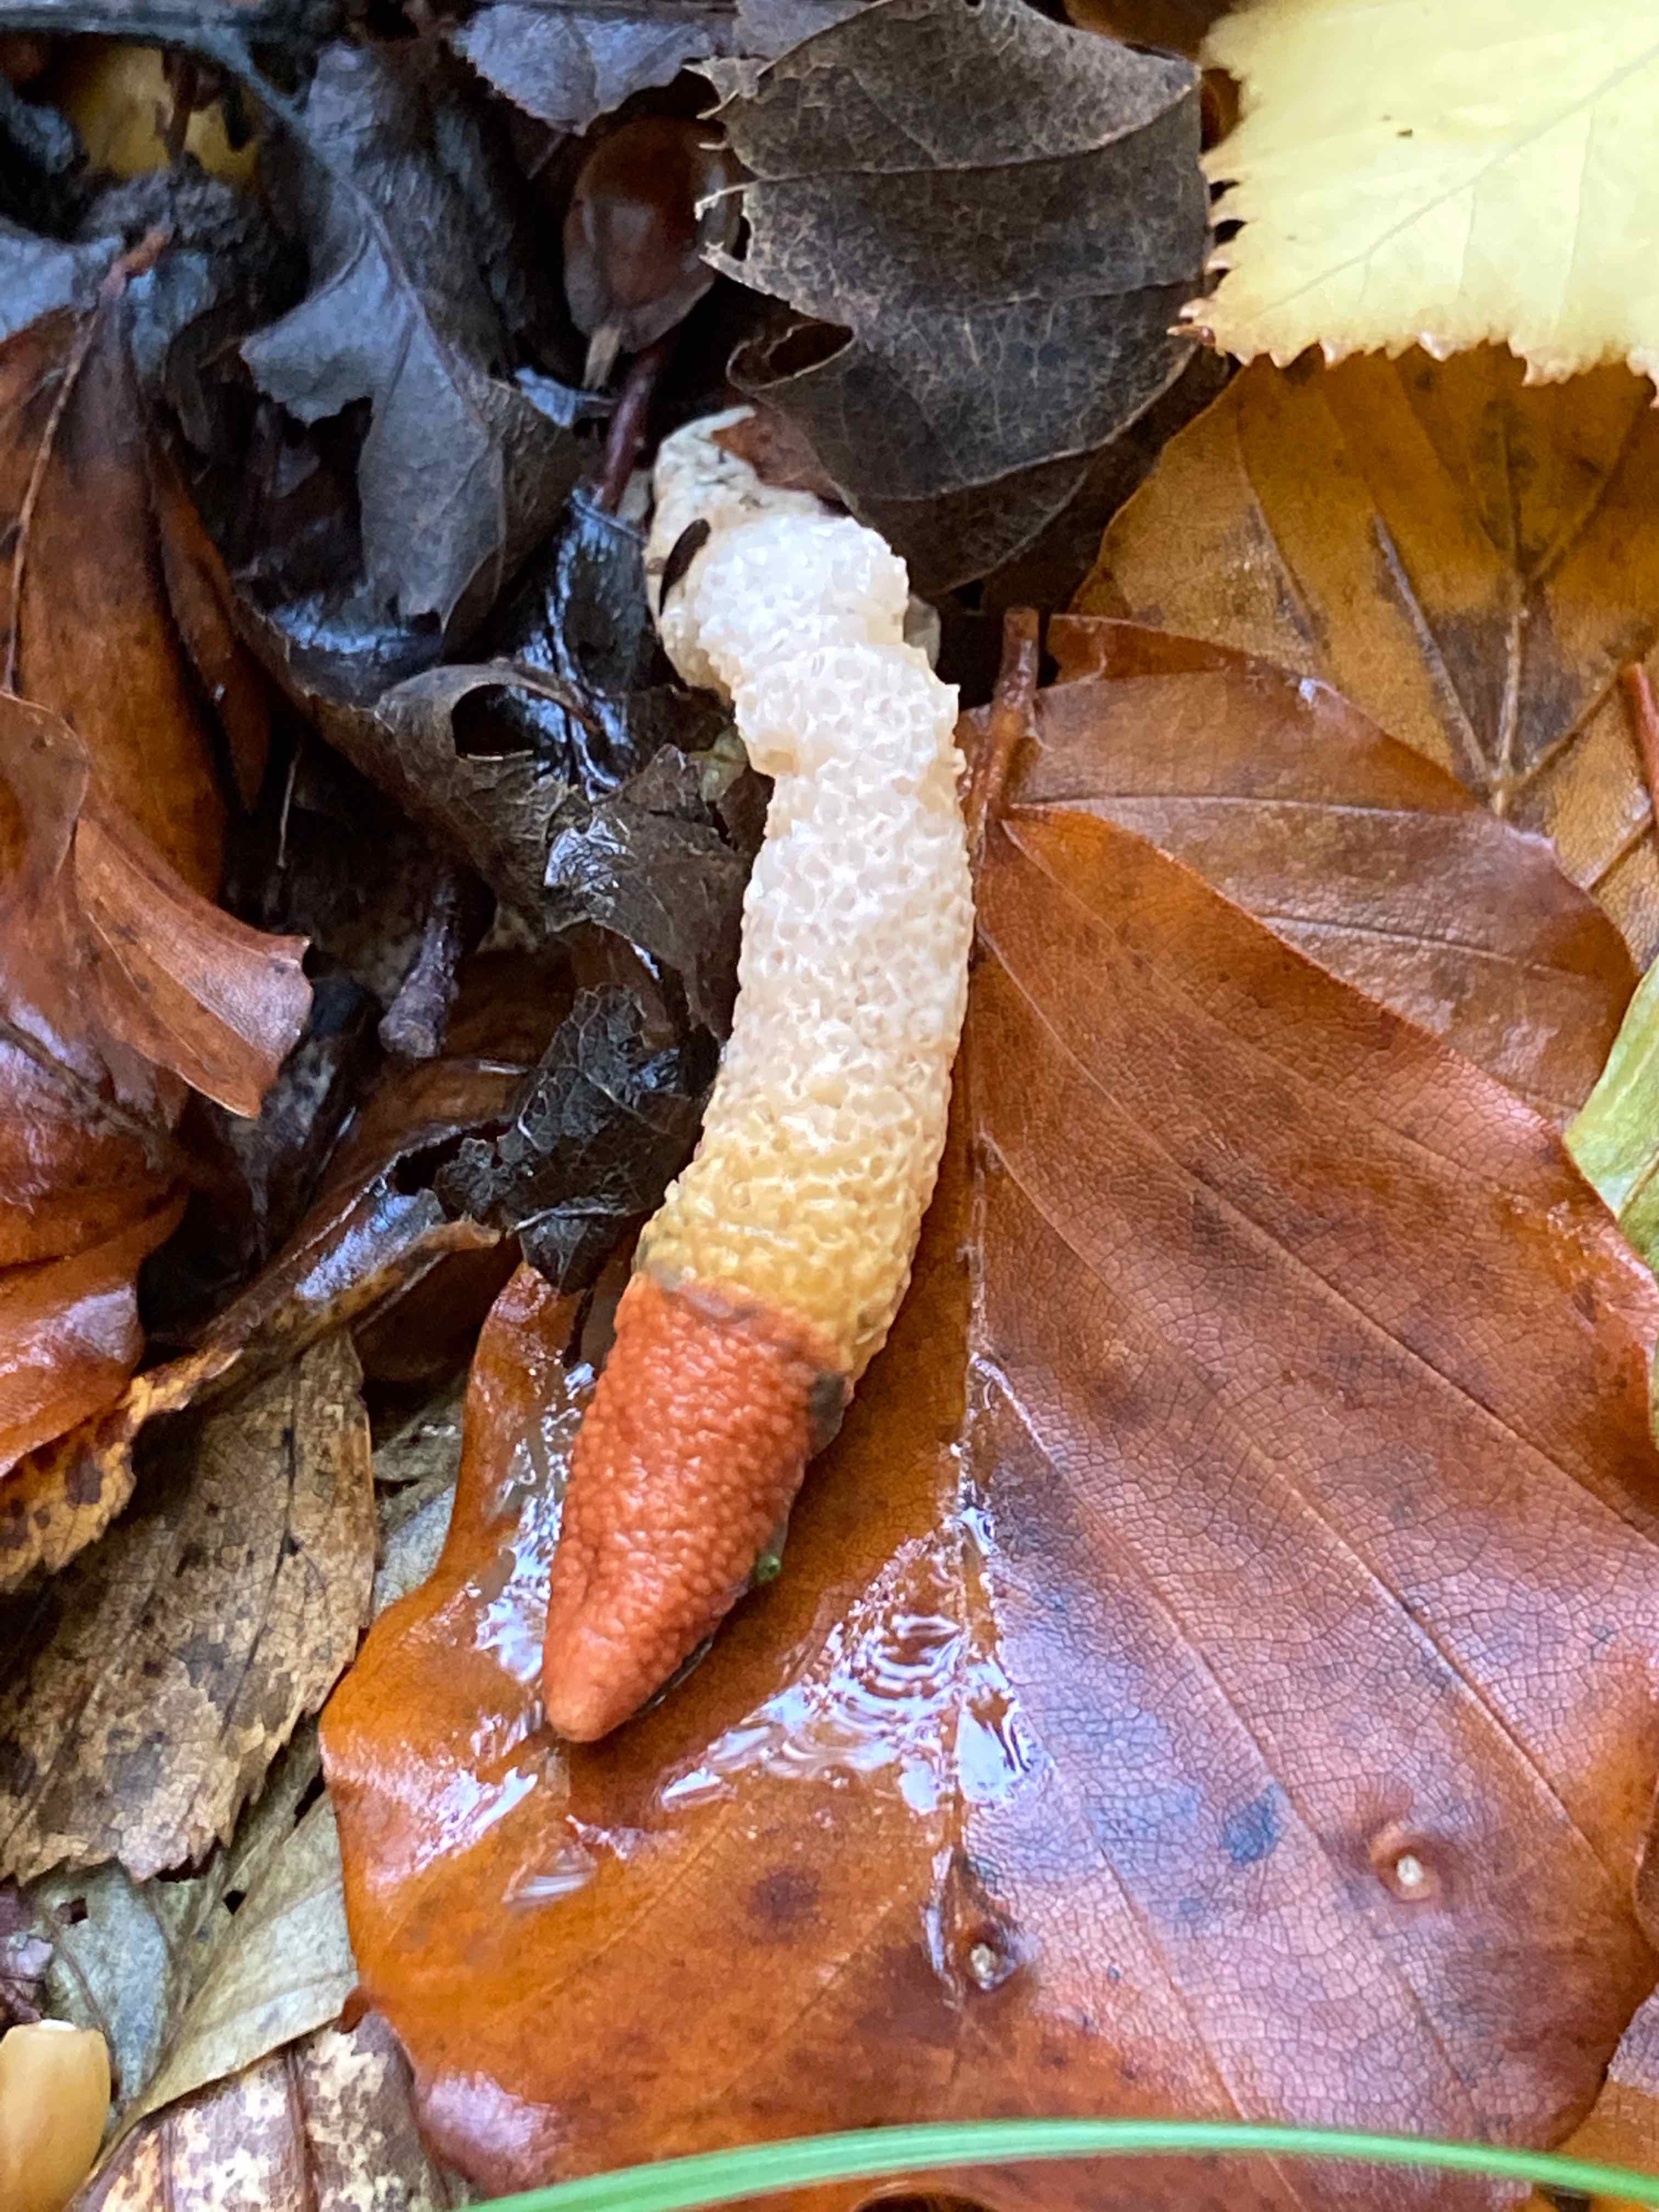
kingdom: Fungi
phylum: Basidiomycota
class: Agaricomycetes
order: Phallales
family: Phallaceae
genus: Mutinus
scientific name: Mutinus caninus
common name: hunde-stinksvamp
